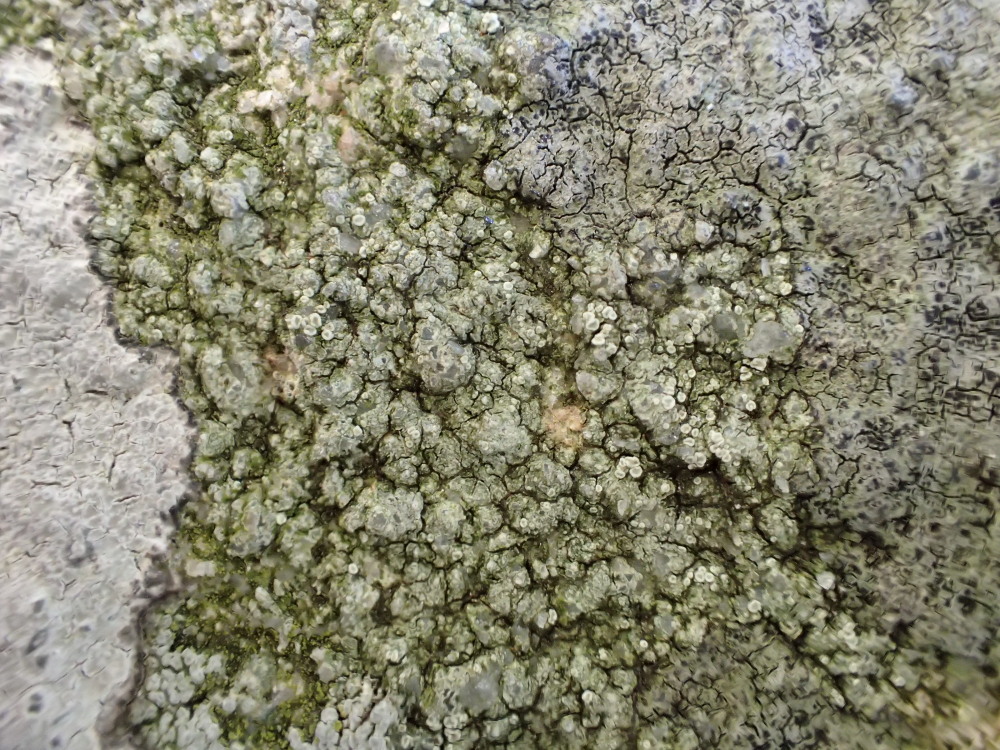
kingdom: Fungi
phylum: Ascomycota
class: Lecanoromycetes
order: Lecanorales
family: Lecanoraceae
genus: Lecanora
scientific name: Lecanora polytropa
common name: bleggrøn kantskivelav
